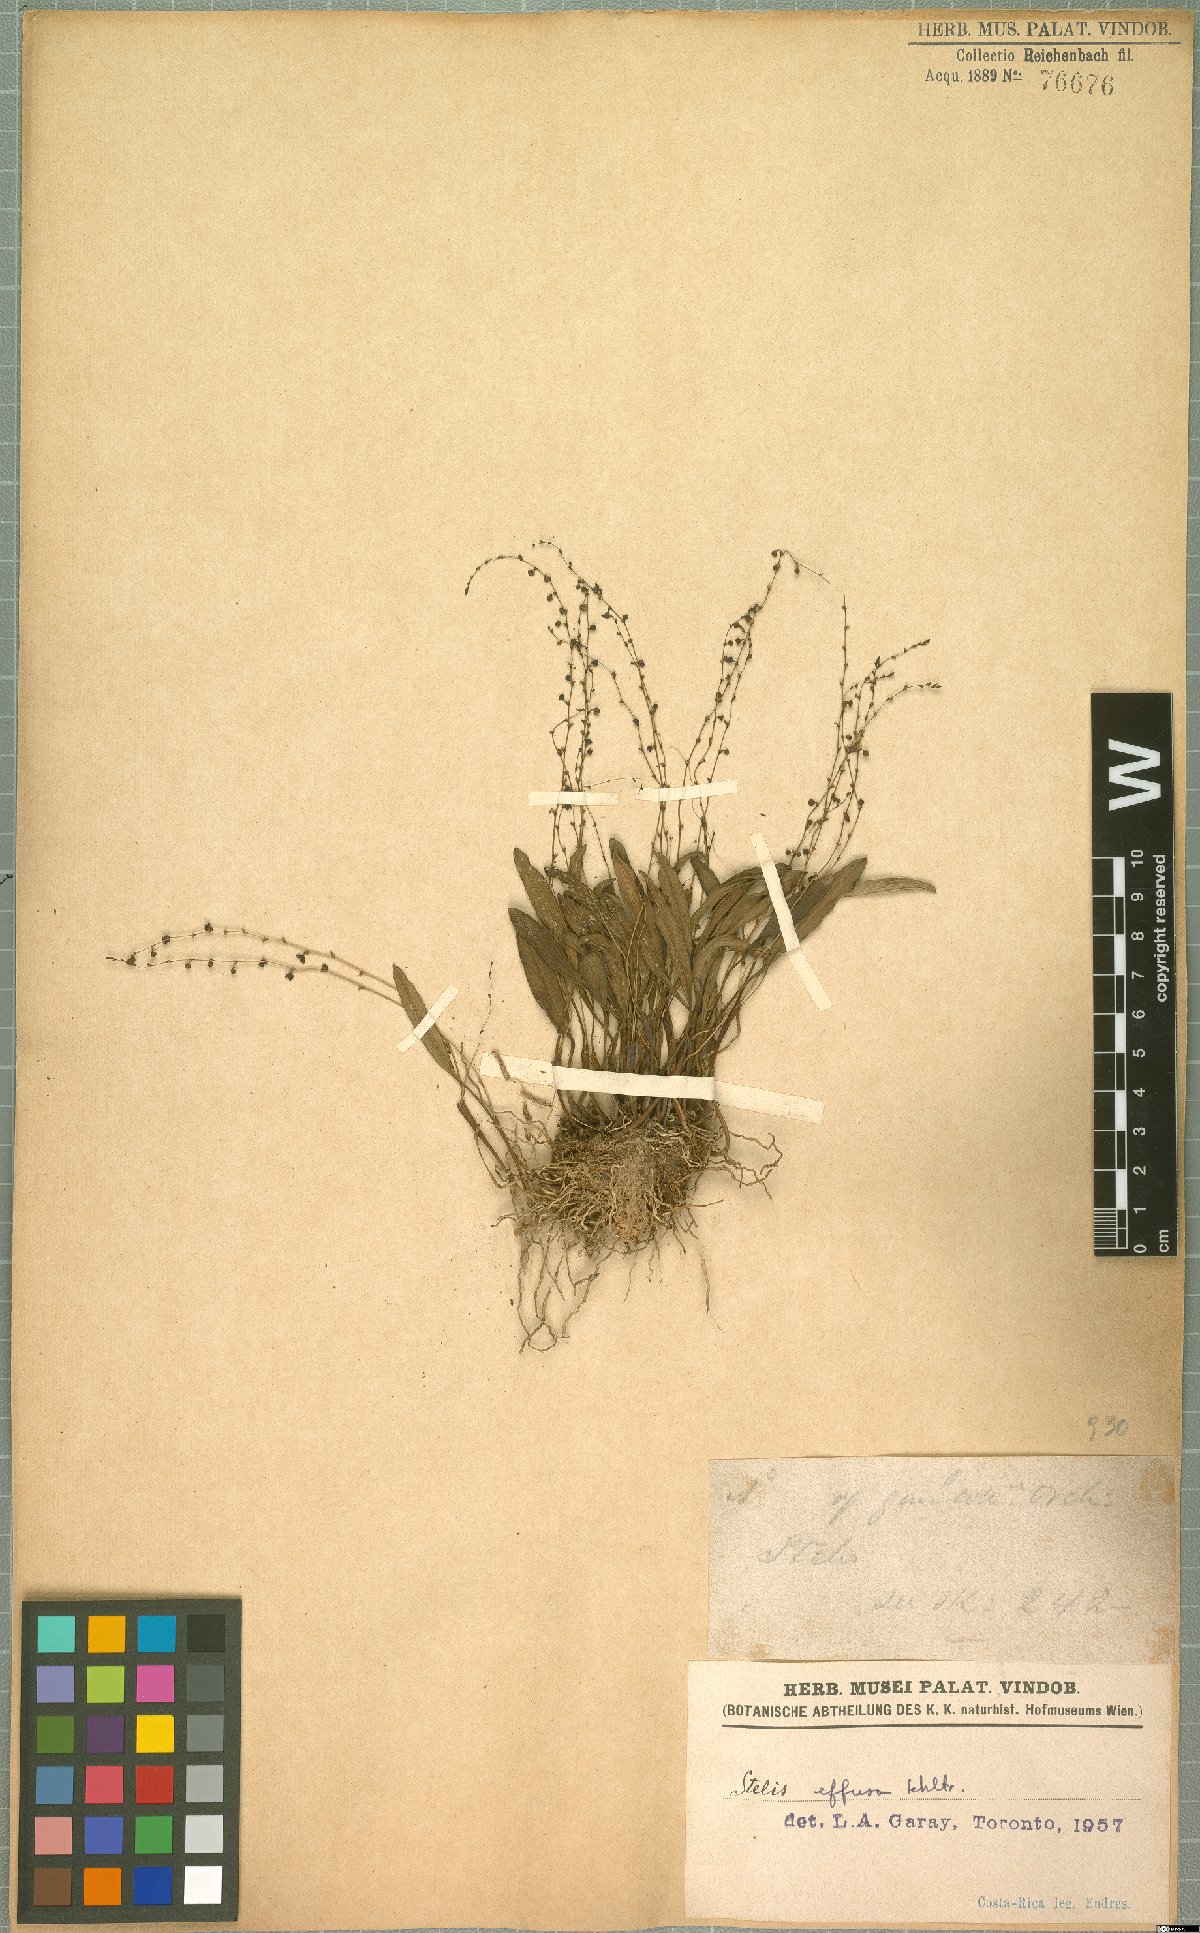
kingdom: Plantae
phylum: Tracheophyta
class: Liliopsida
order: Asparagales
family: Orchidaceae
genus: Stelis
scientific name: Stelis effusa
